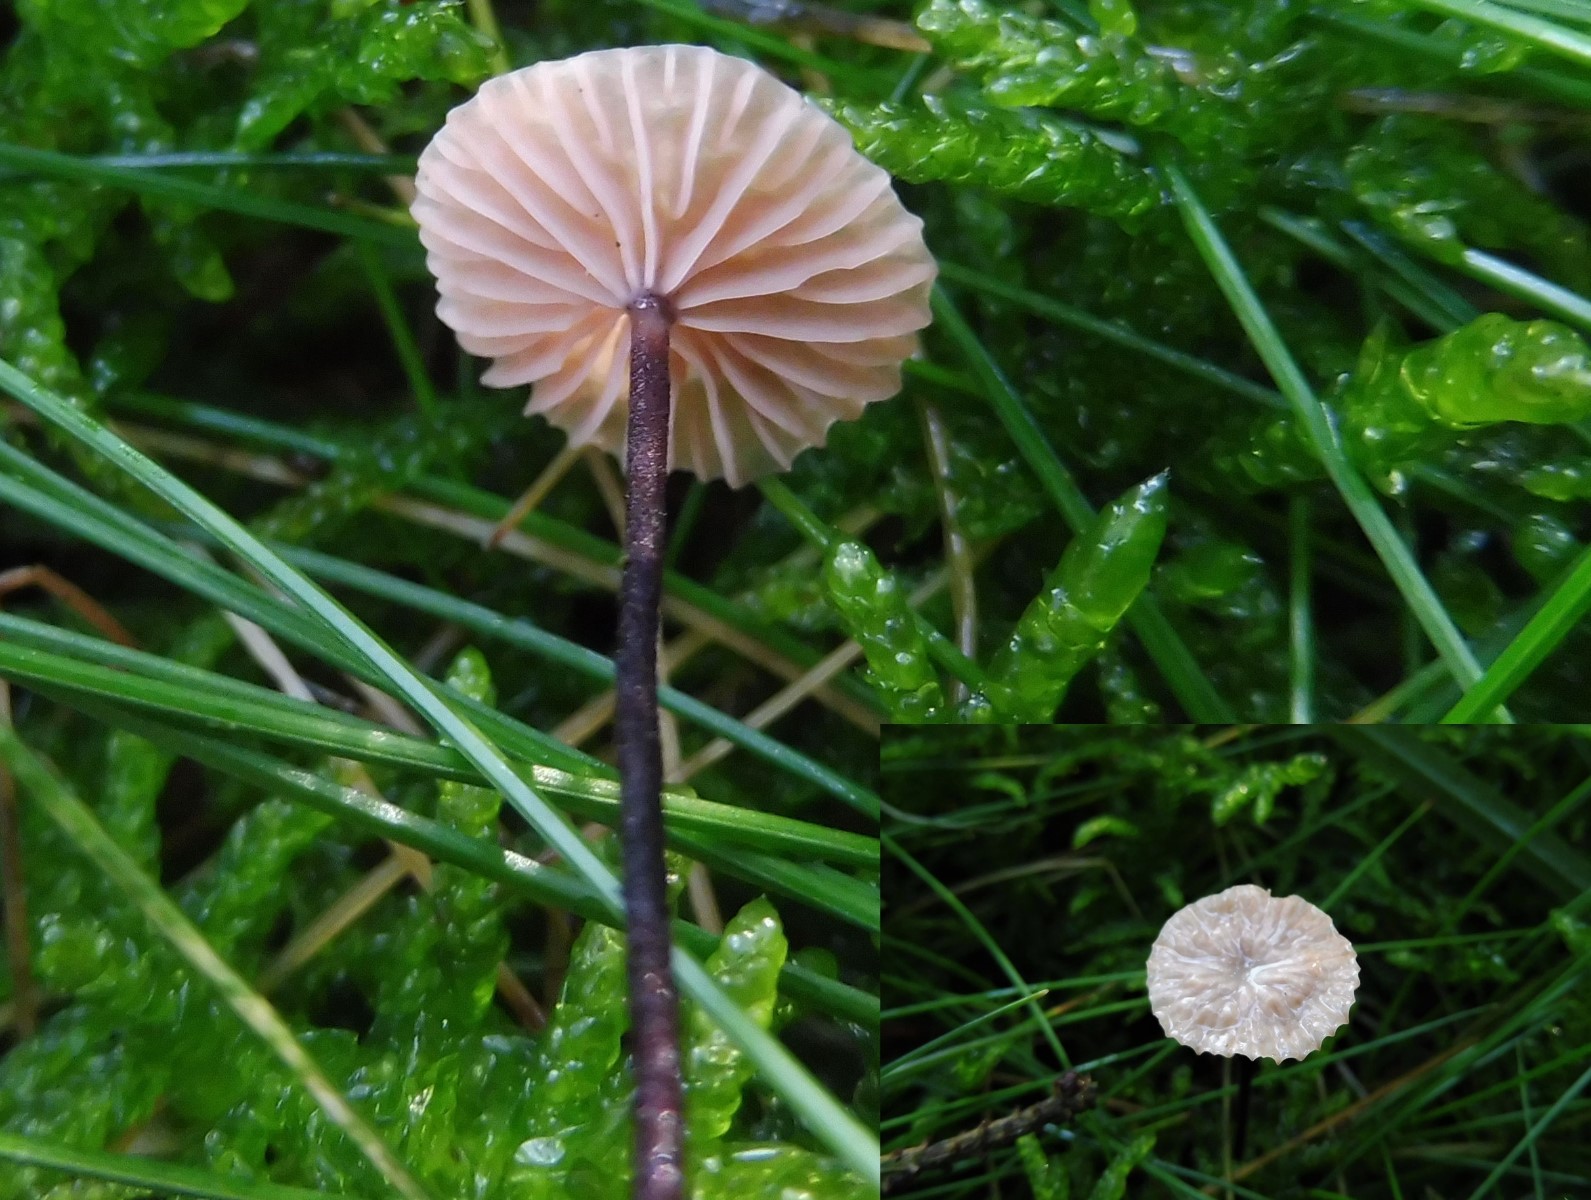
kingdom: Fungi
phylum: Basidiomycota
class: Agaricomycetes
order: Agaricales
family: Omphalotaceae
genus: Paragymnopus
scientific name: Paragymnopus perforans
